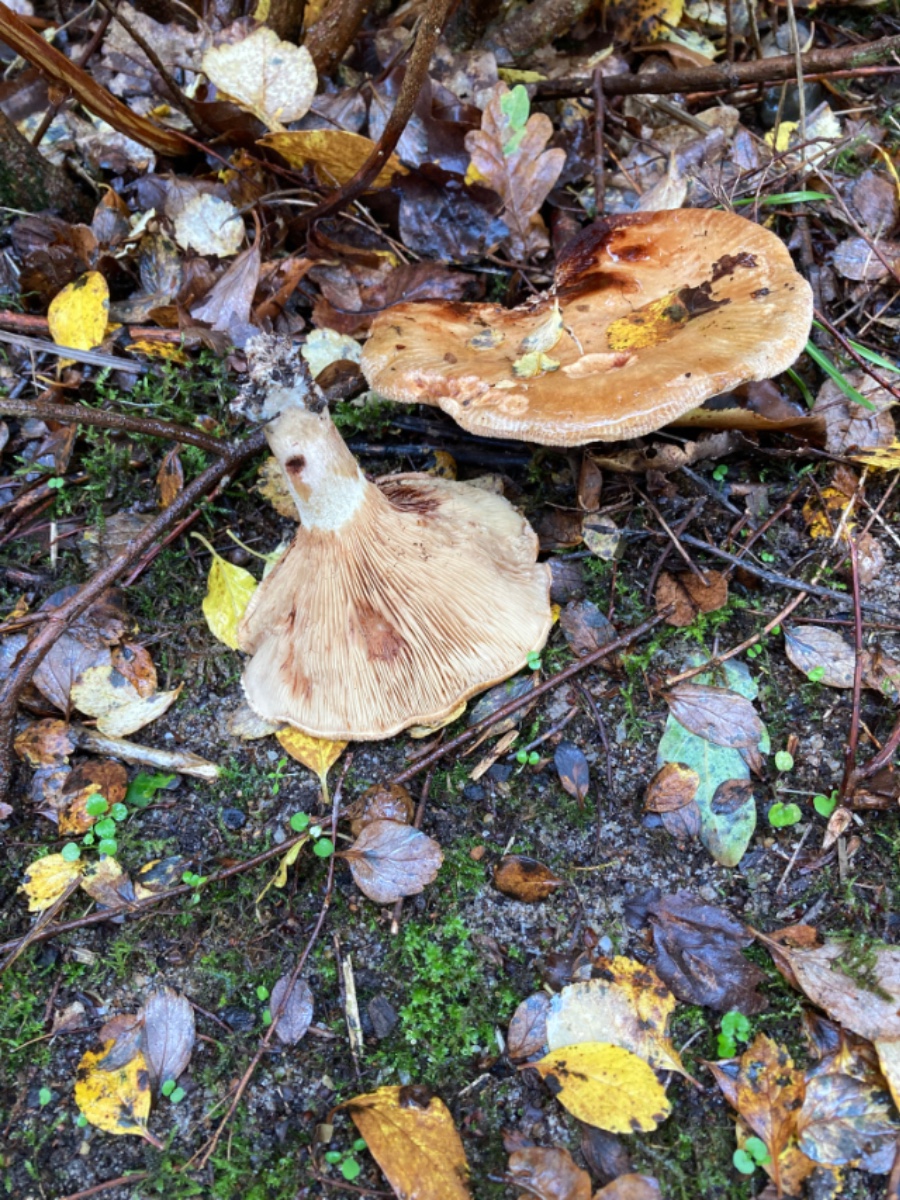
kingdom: Fungi
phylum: Basidiomycota
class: Agaricomycetes
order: Boletales
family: Paxillaceae
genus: Paxillus
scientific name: Paxillus involutus
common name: almindelig netbladhat
